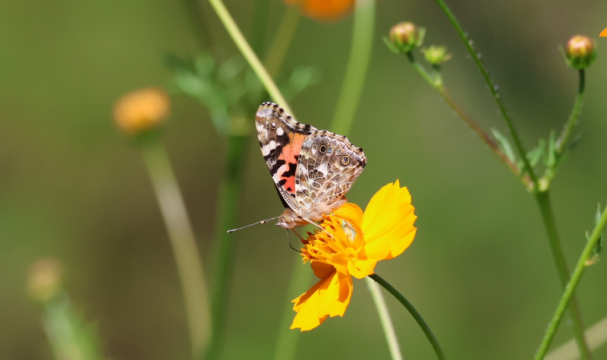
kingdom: Animalia
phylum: Arthropoda
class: Insecta
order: Lepidoptera
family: Nymphalidae
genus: Vanessa
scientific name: Vanessa cardui
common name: Painted Lady
